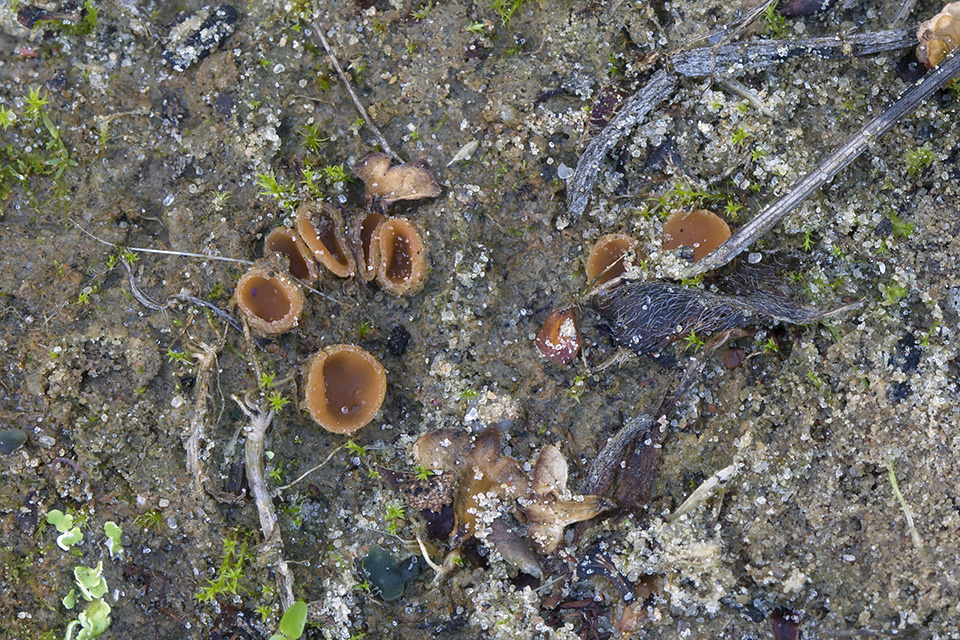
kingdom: Fungi
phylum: Ascomycota
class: Pezizomycetes
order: Pezizales
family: Pyronemataceae
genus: Geopora
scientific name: Geopora semi-immersa
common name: nedsænket børstebæger
